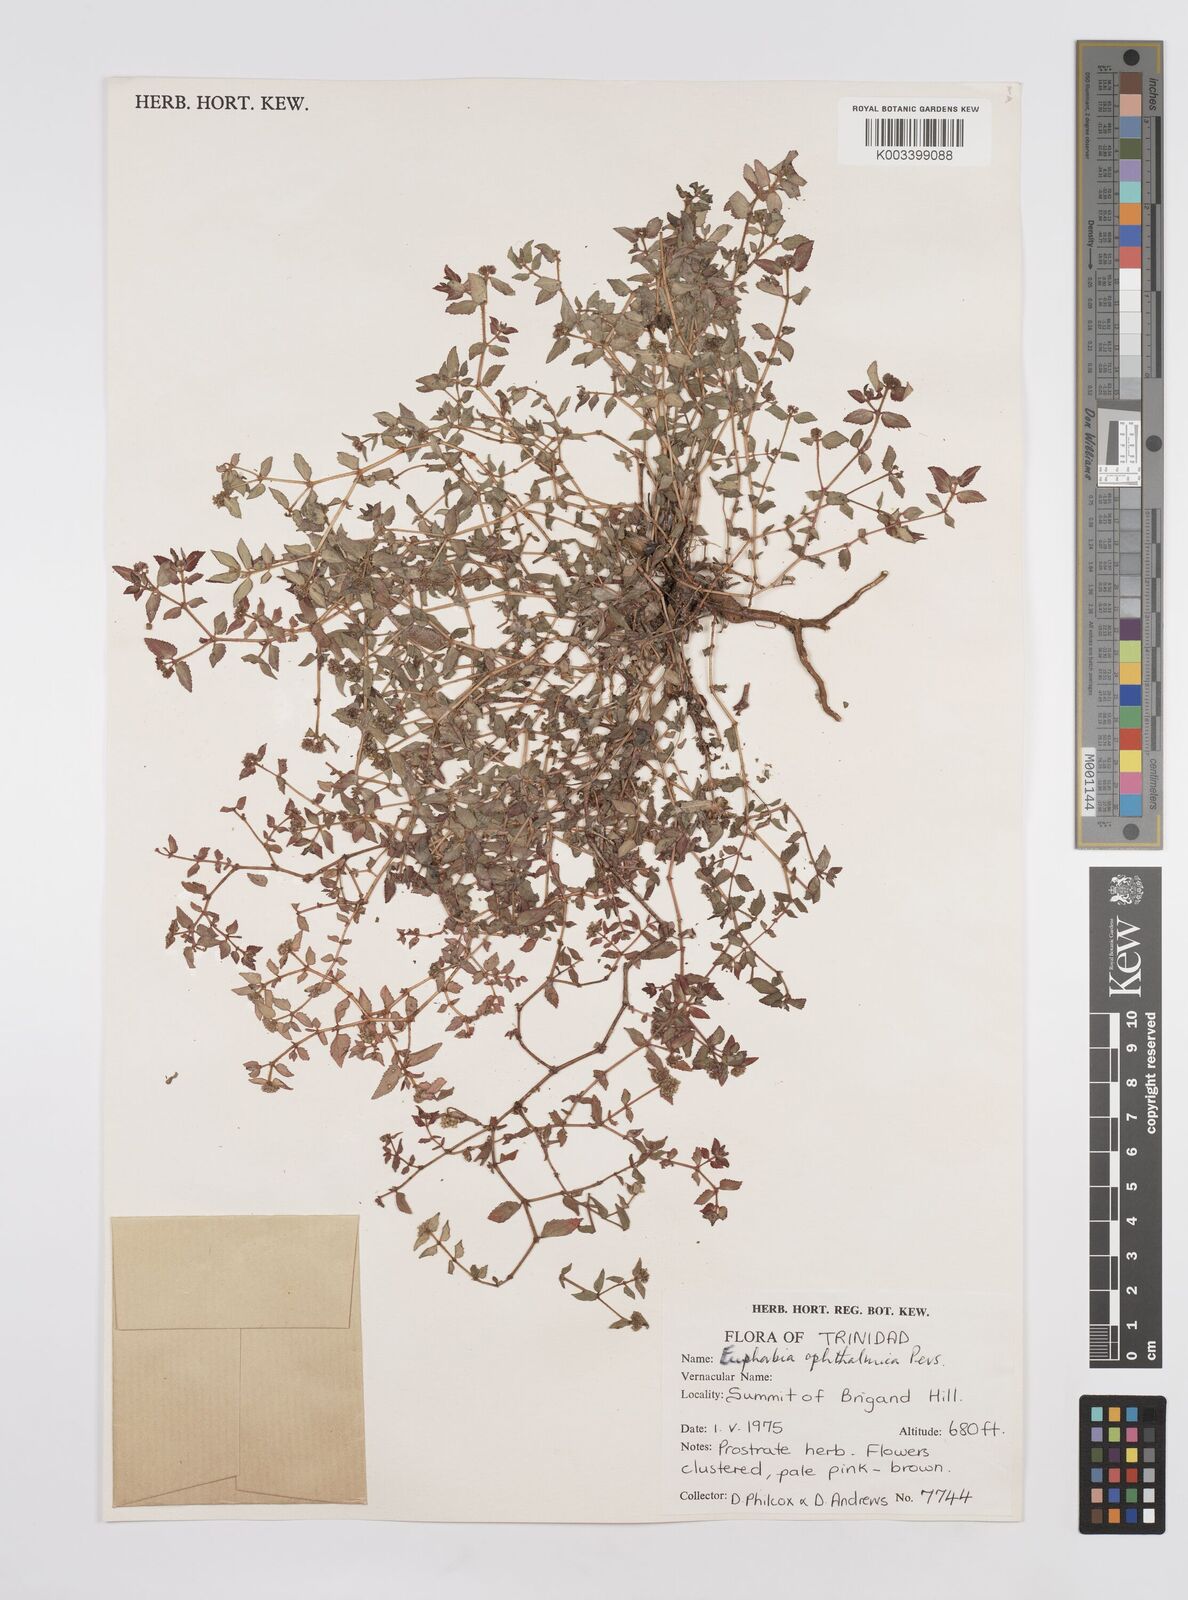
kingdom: Plantae
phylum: Tracheophyta
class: Magnoliopsida
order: Malpighiales
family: Euphorbiaceae
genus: Euphorbia
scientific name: Euphorbia ophthalmica
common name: Florida hammock sandmat
